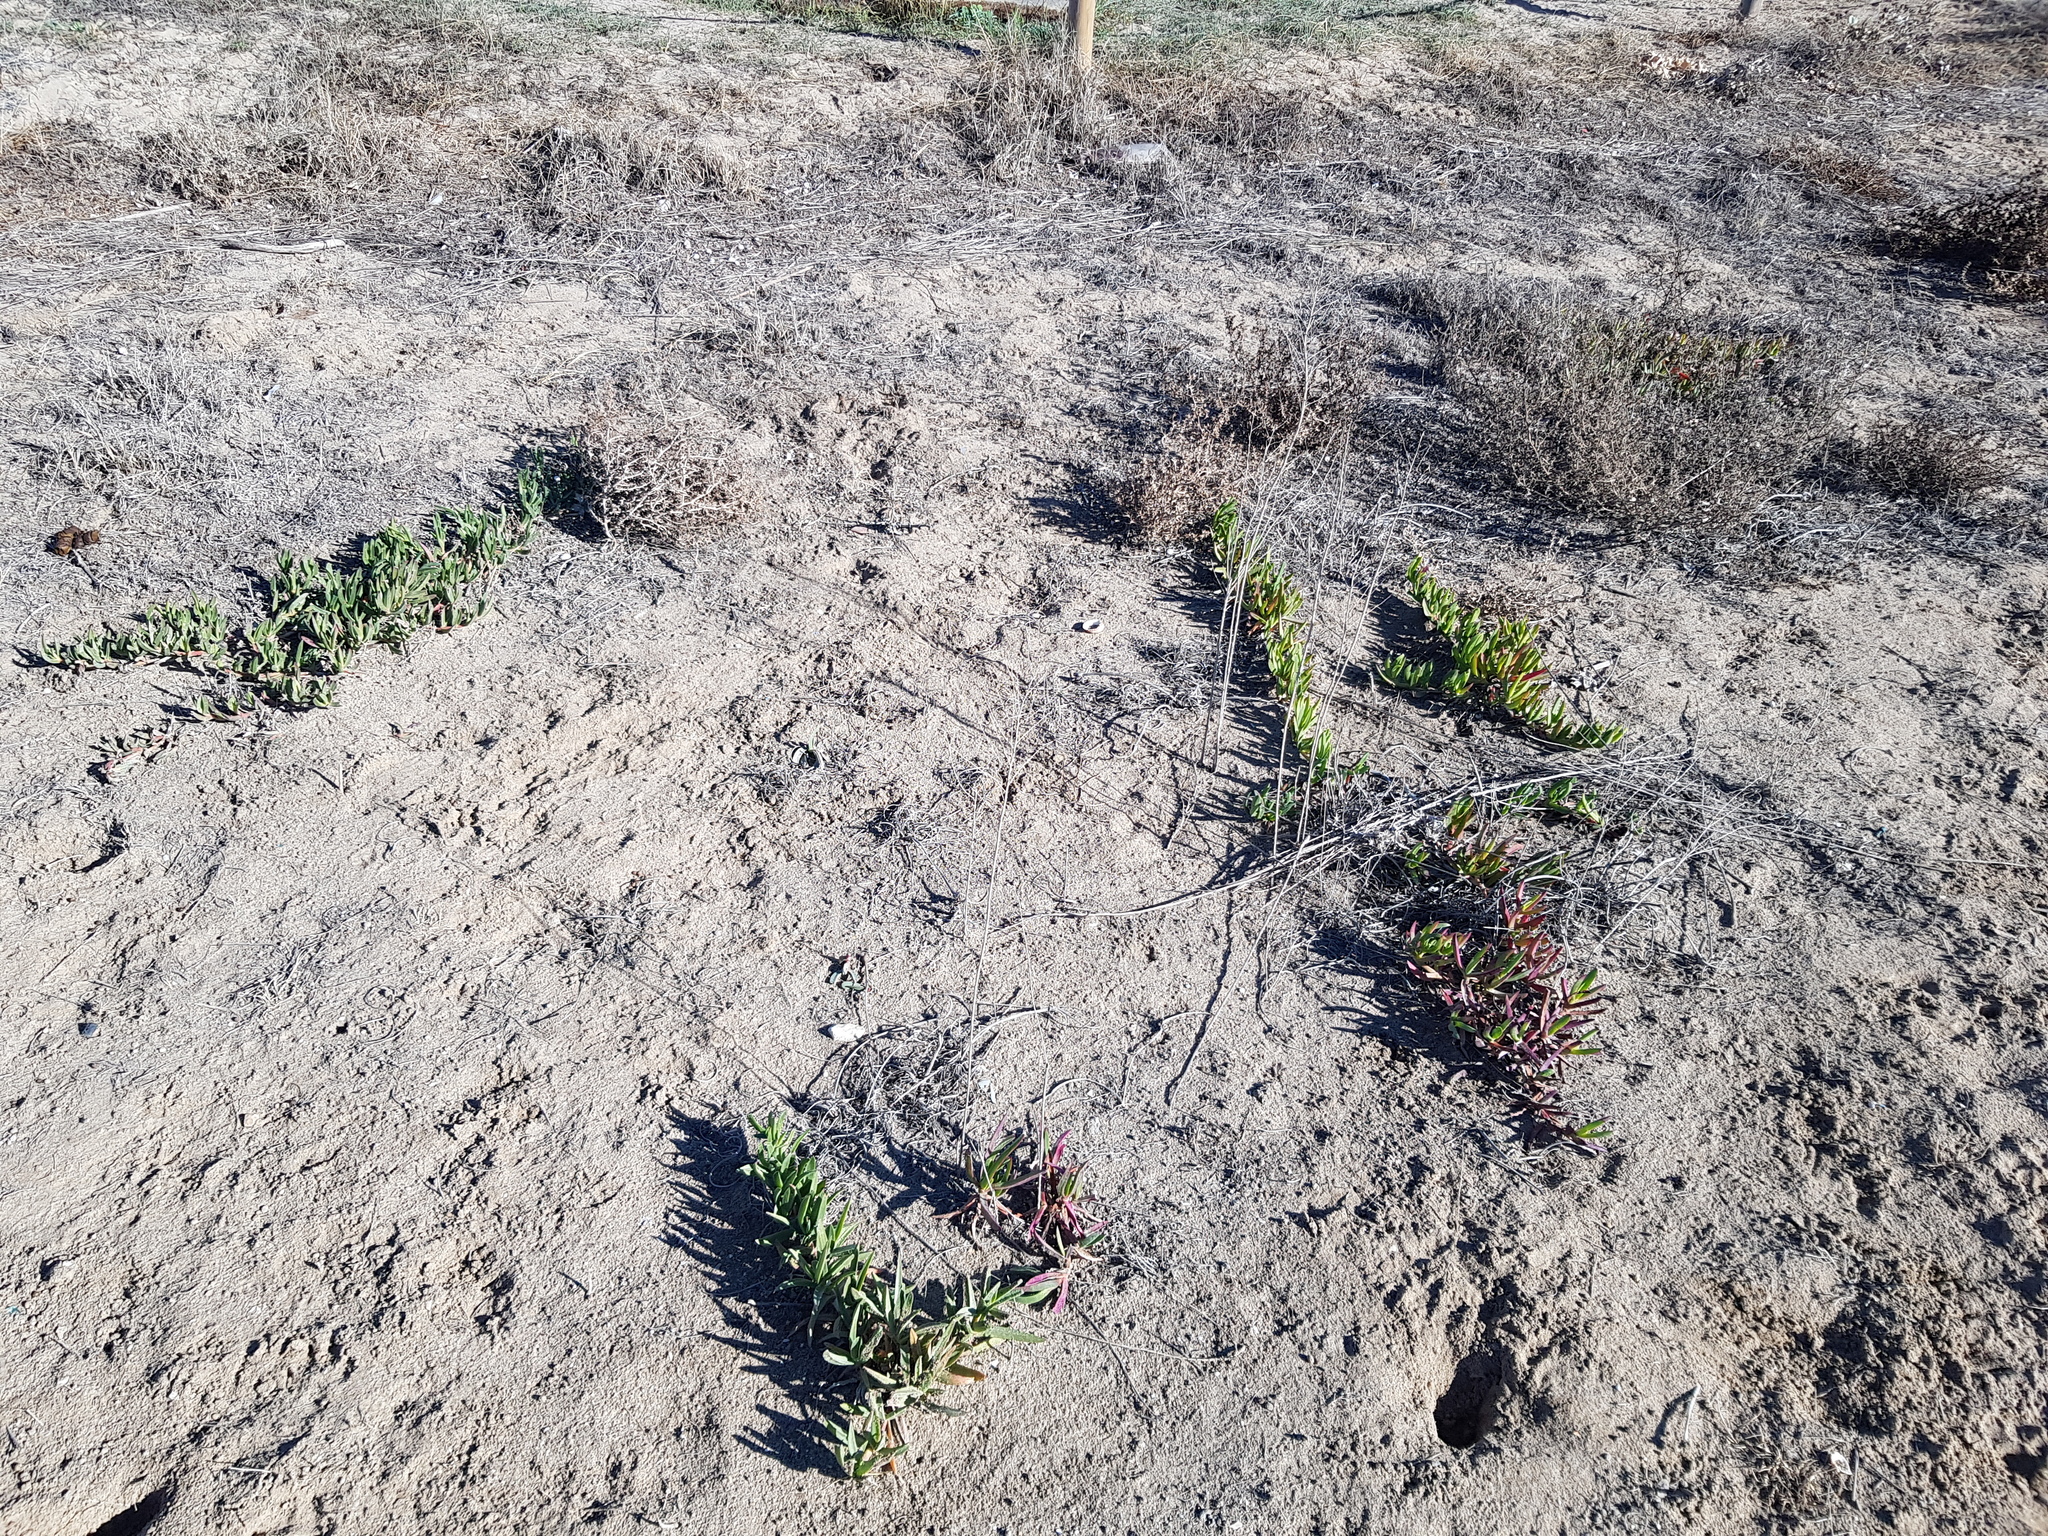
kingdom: Plantae
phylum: Tracheophyta
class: Magnoliopsida
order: Caryophyllales
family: Aizoaceae
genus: Carpobrotus
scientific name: Carpobrotus edulis
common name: Hottentot-fig
